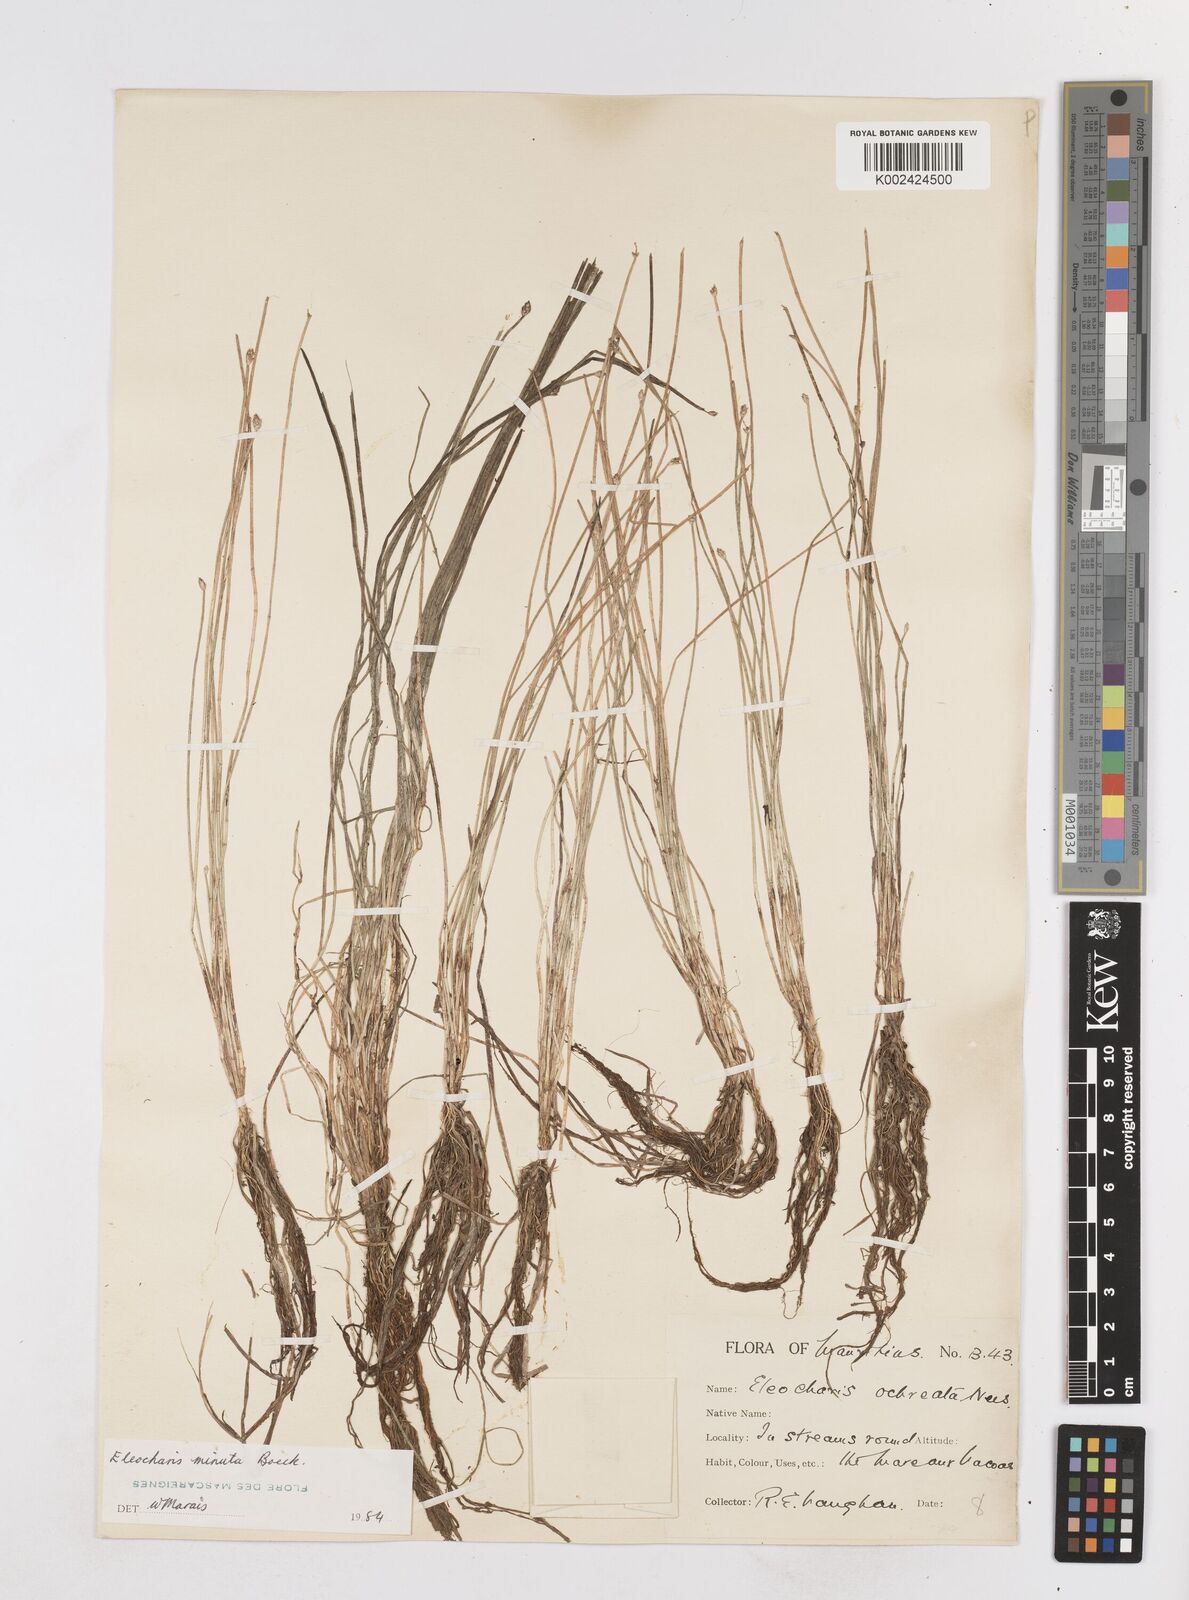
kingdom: Plantae
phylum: Tracheophyta
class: Liliopsida
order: Poales
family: Cyperaceae
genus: Eleocharis
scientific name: Eleocharis minuta
